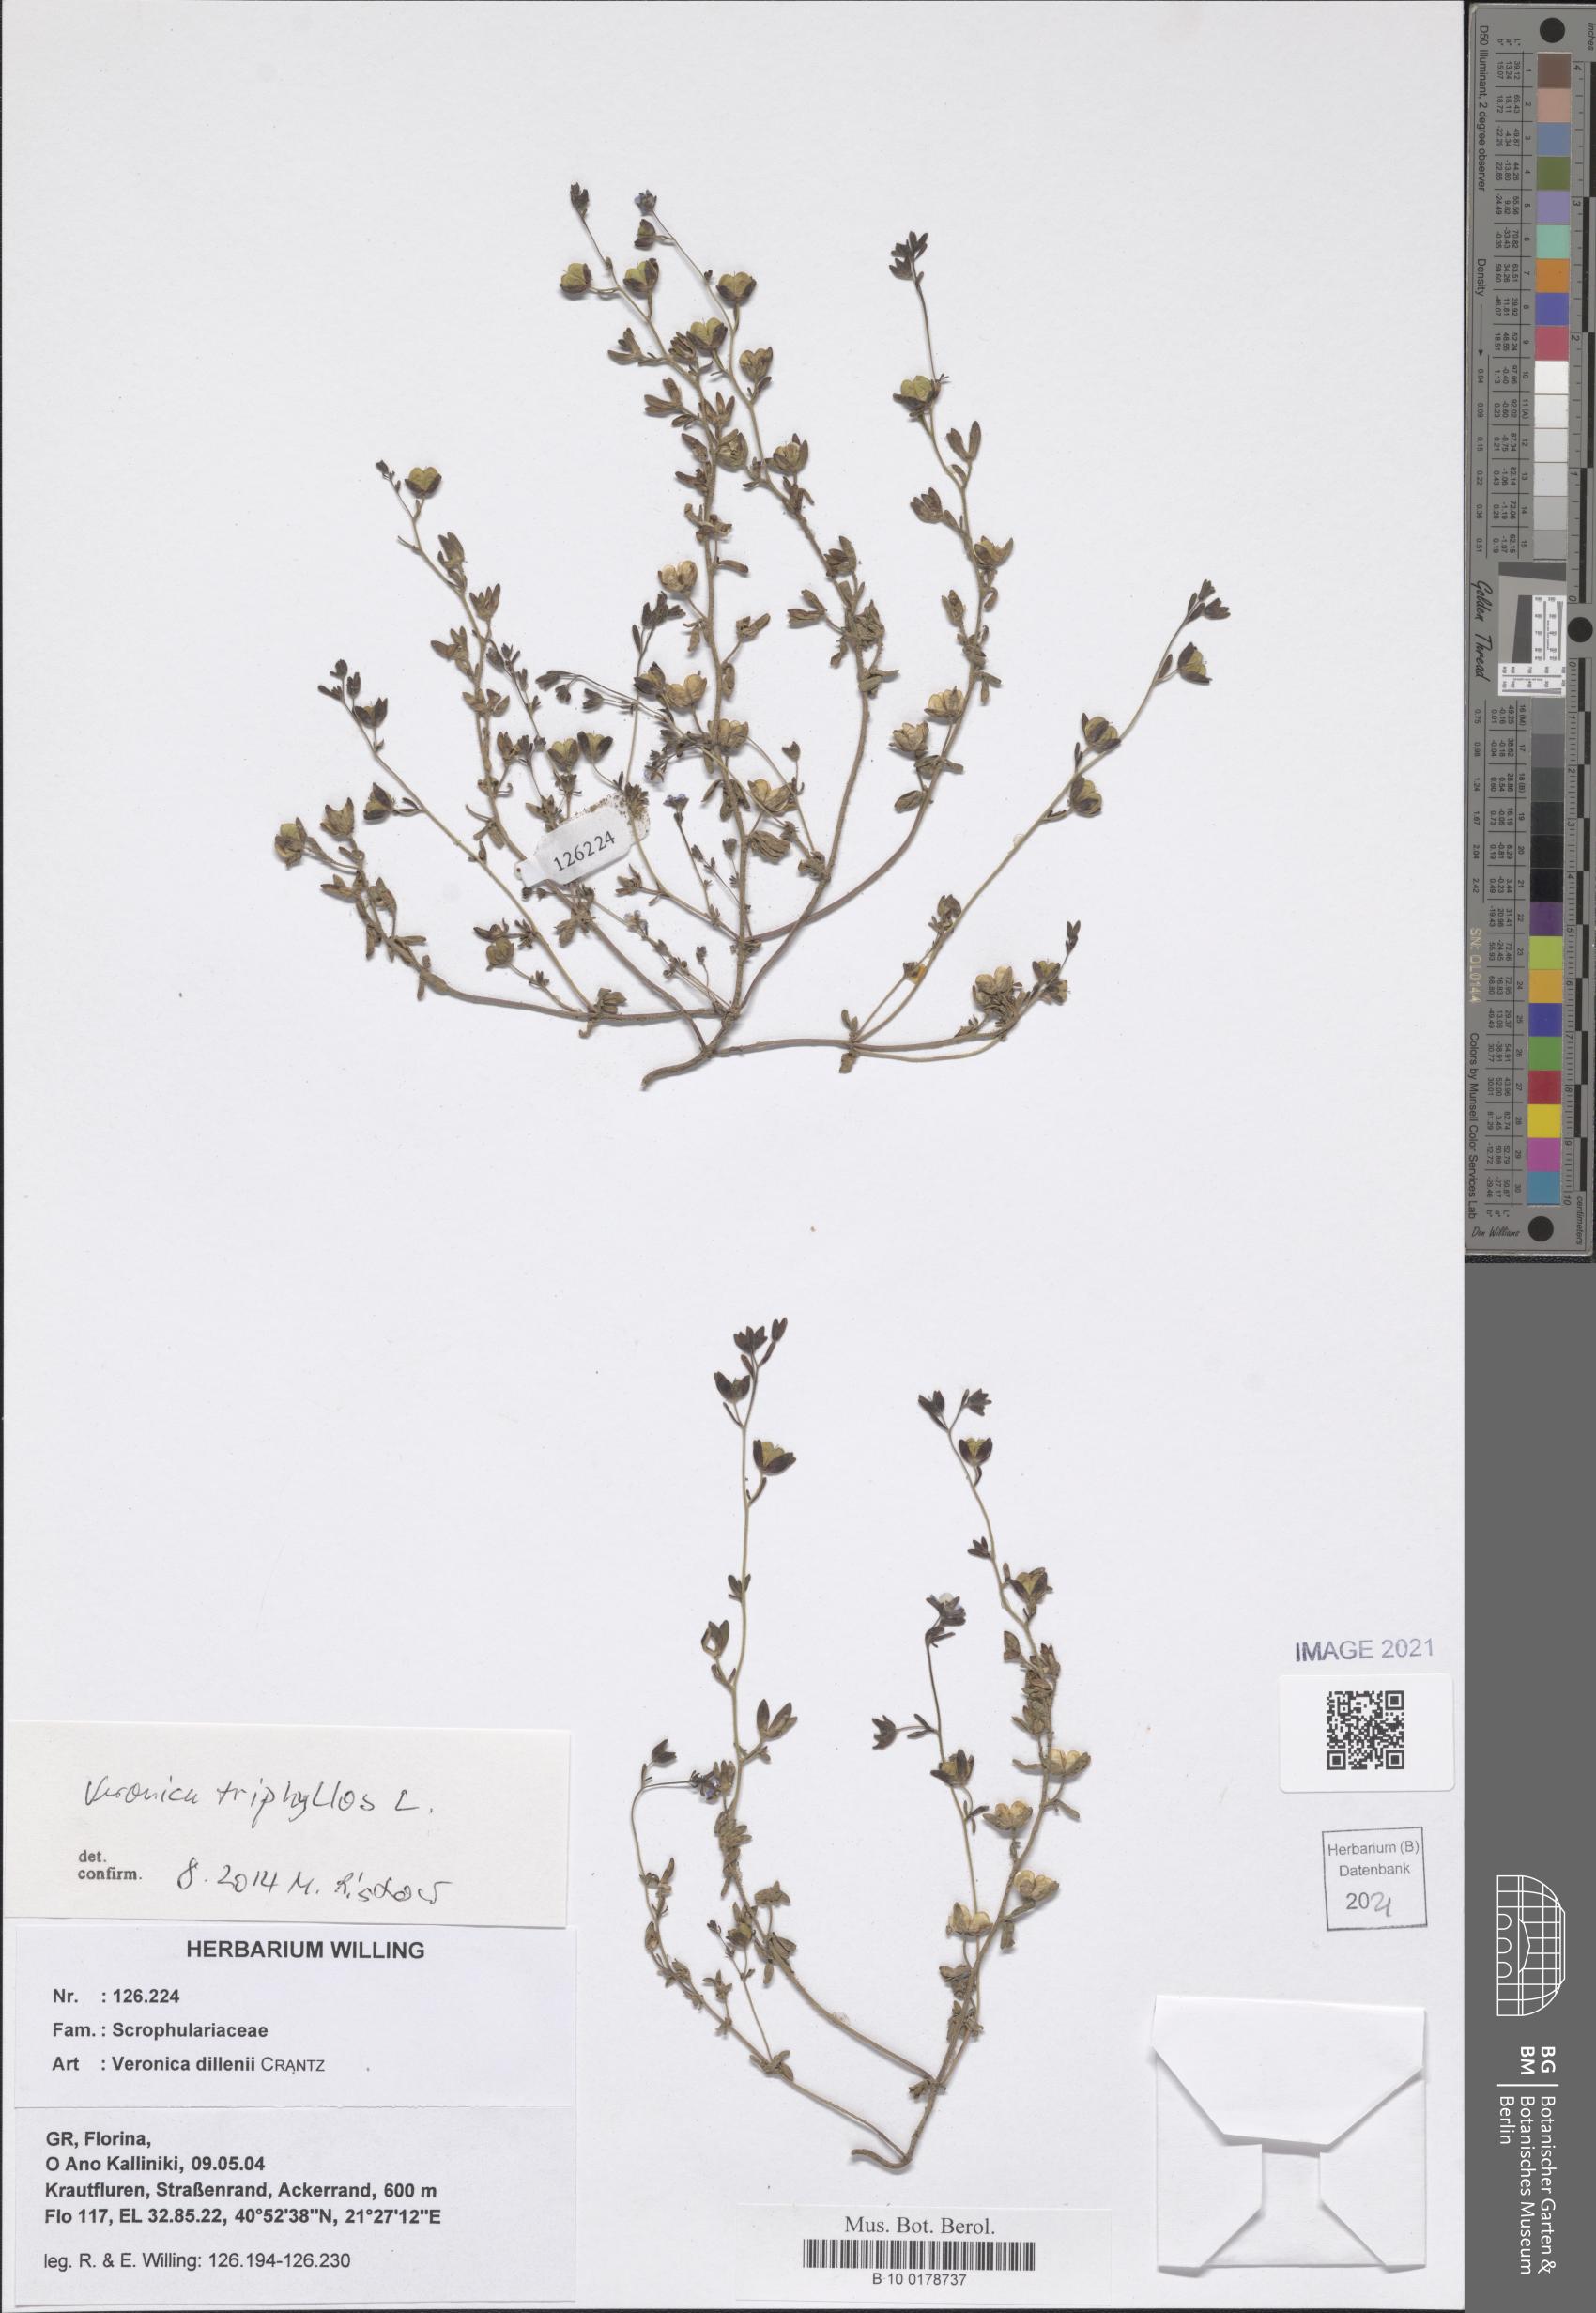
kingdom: Plantae
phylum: Tracheophyta
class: Magnoliopsida
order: Lamiales
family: Plantaginaceae
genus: Veronica
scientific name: Veronica triphyllos
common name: Fingered speedwell
